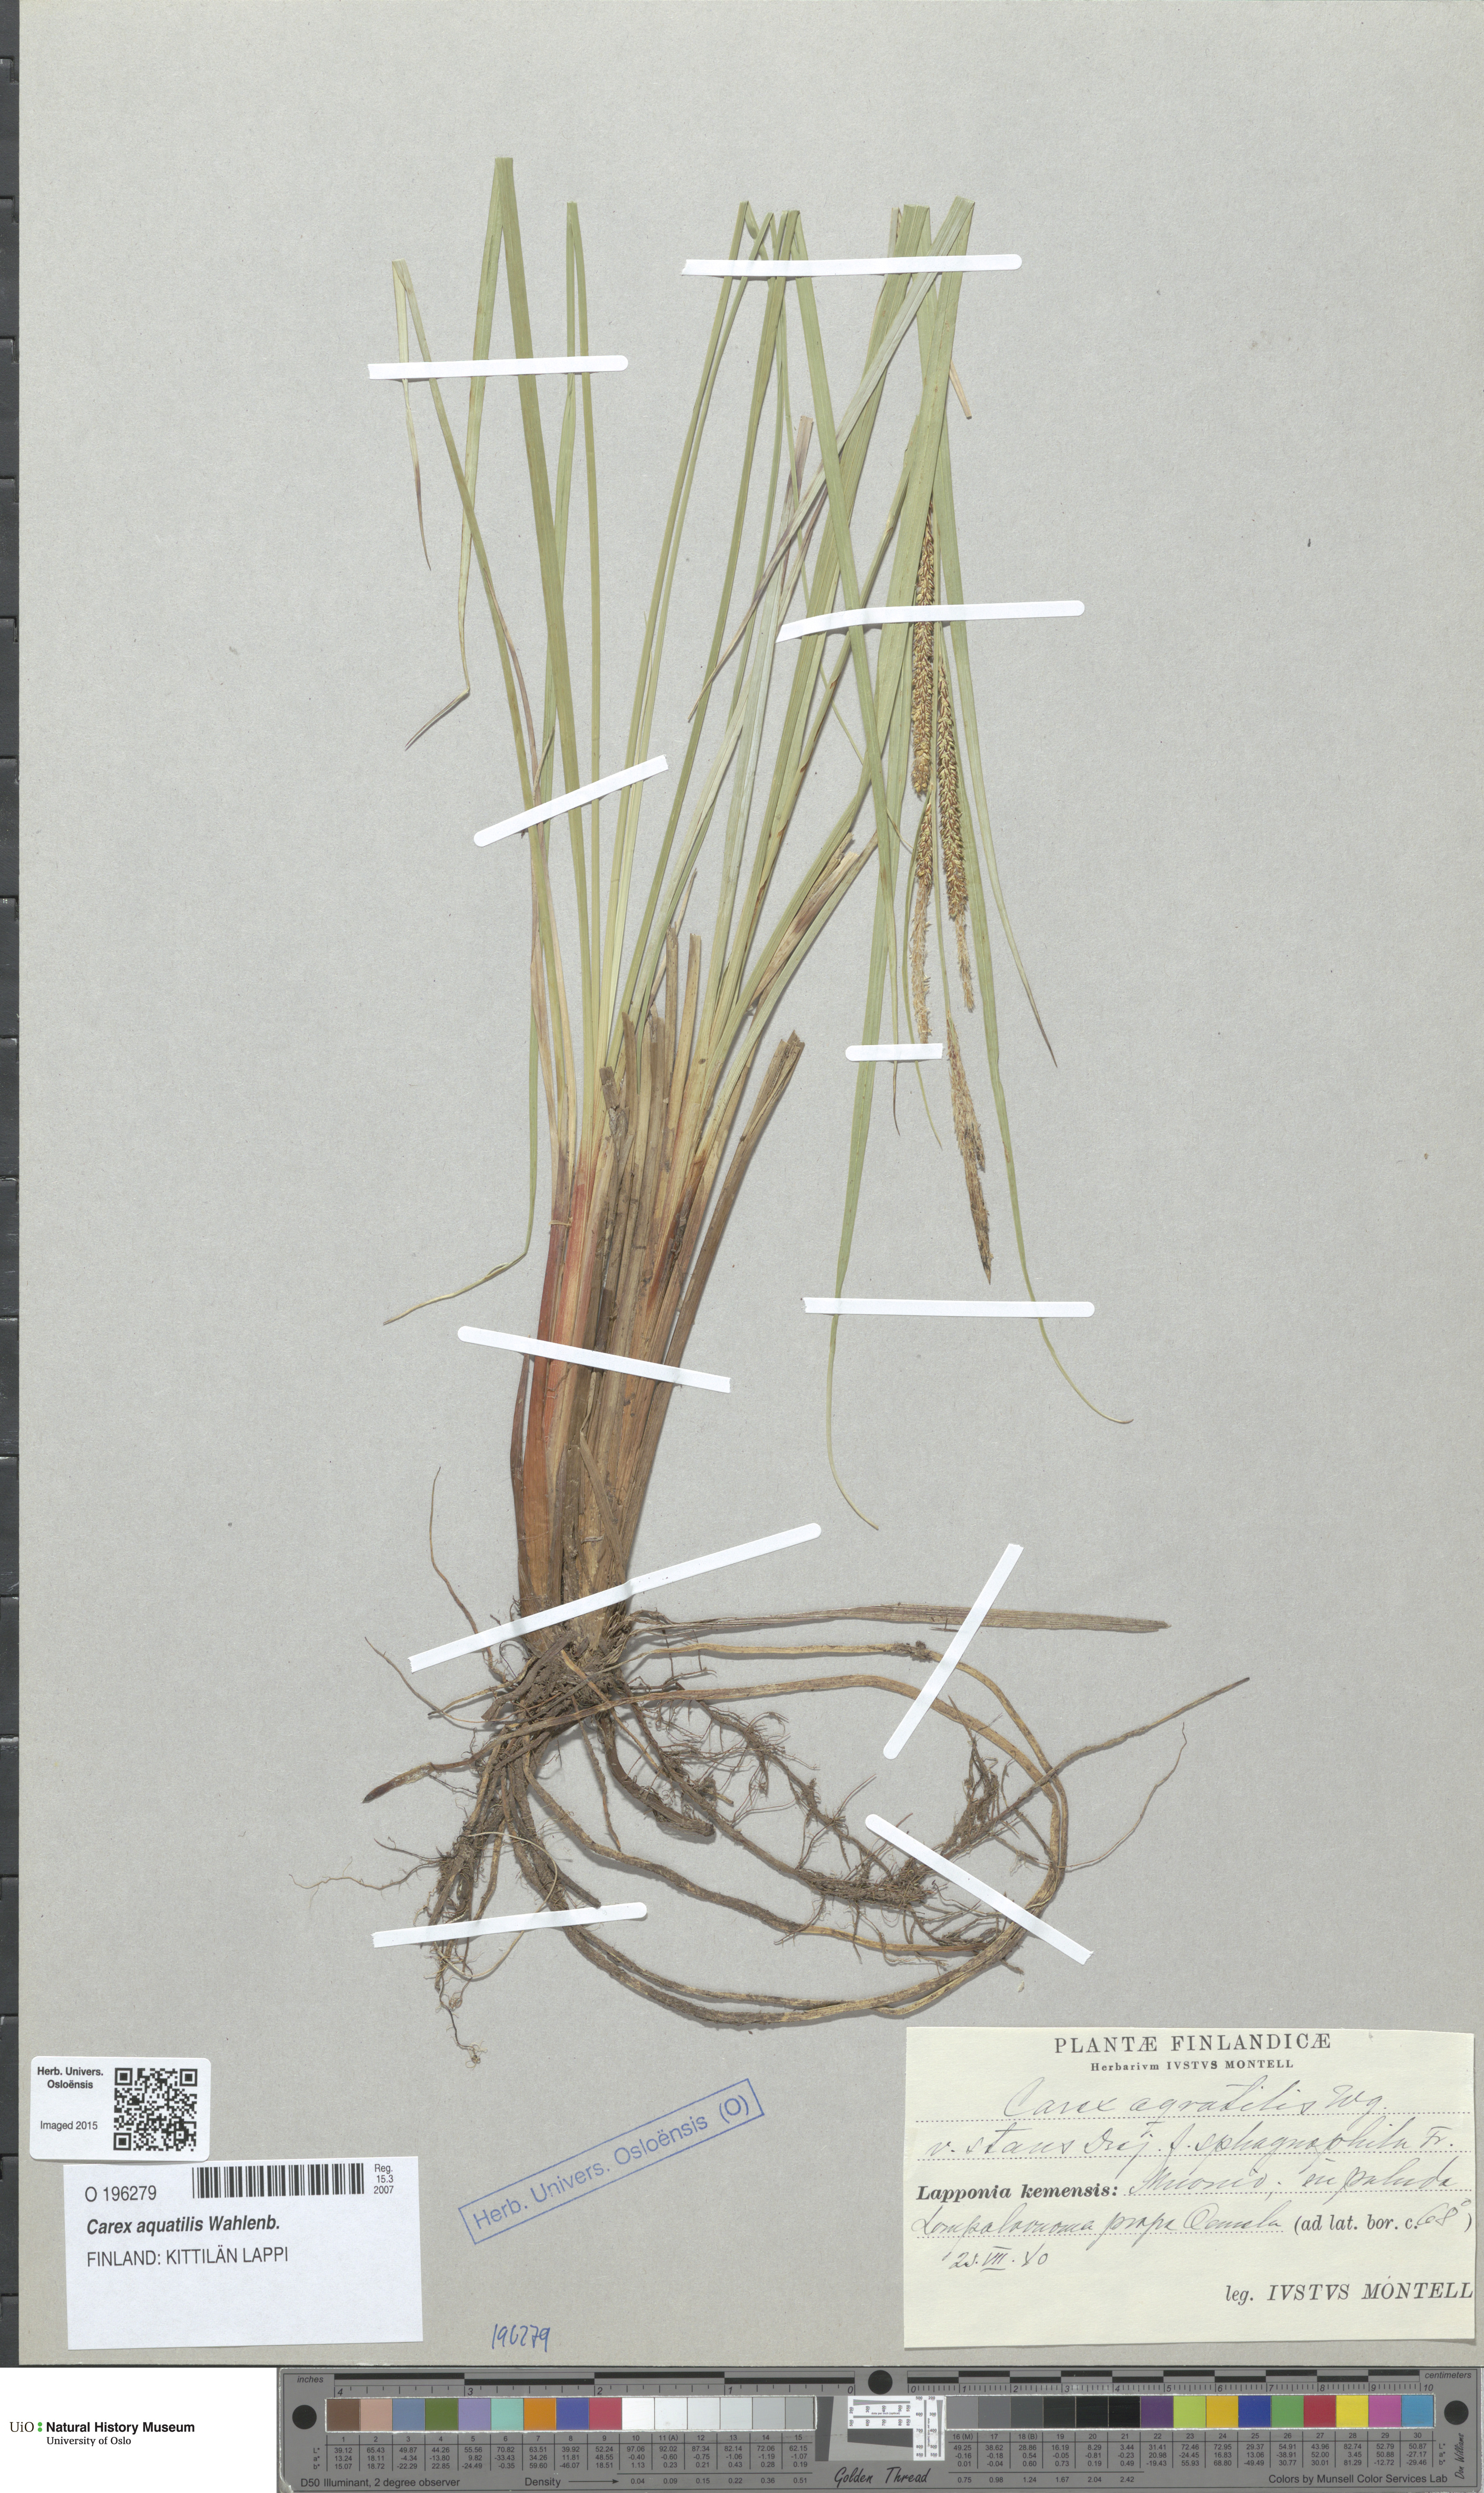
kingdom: Plantae
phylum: Tracheophyta
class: Liliopsida
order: Poales
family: Cyperaceae
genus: Carex
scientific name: Carex aquatilis
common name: Water sedge
